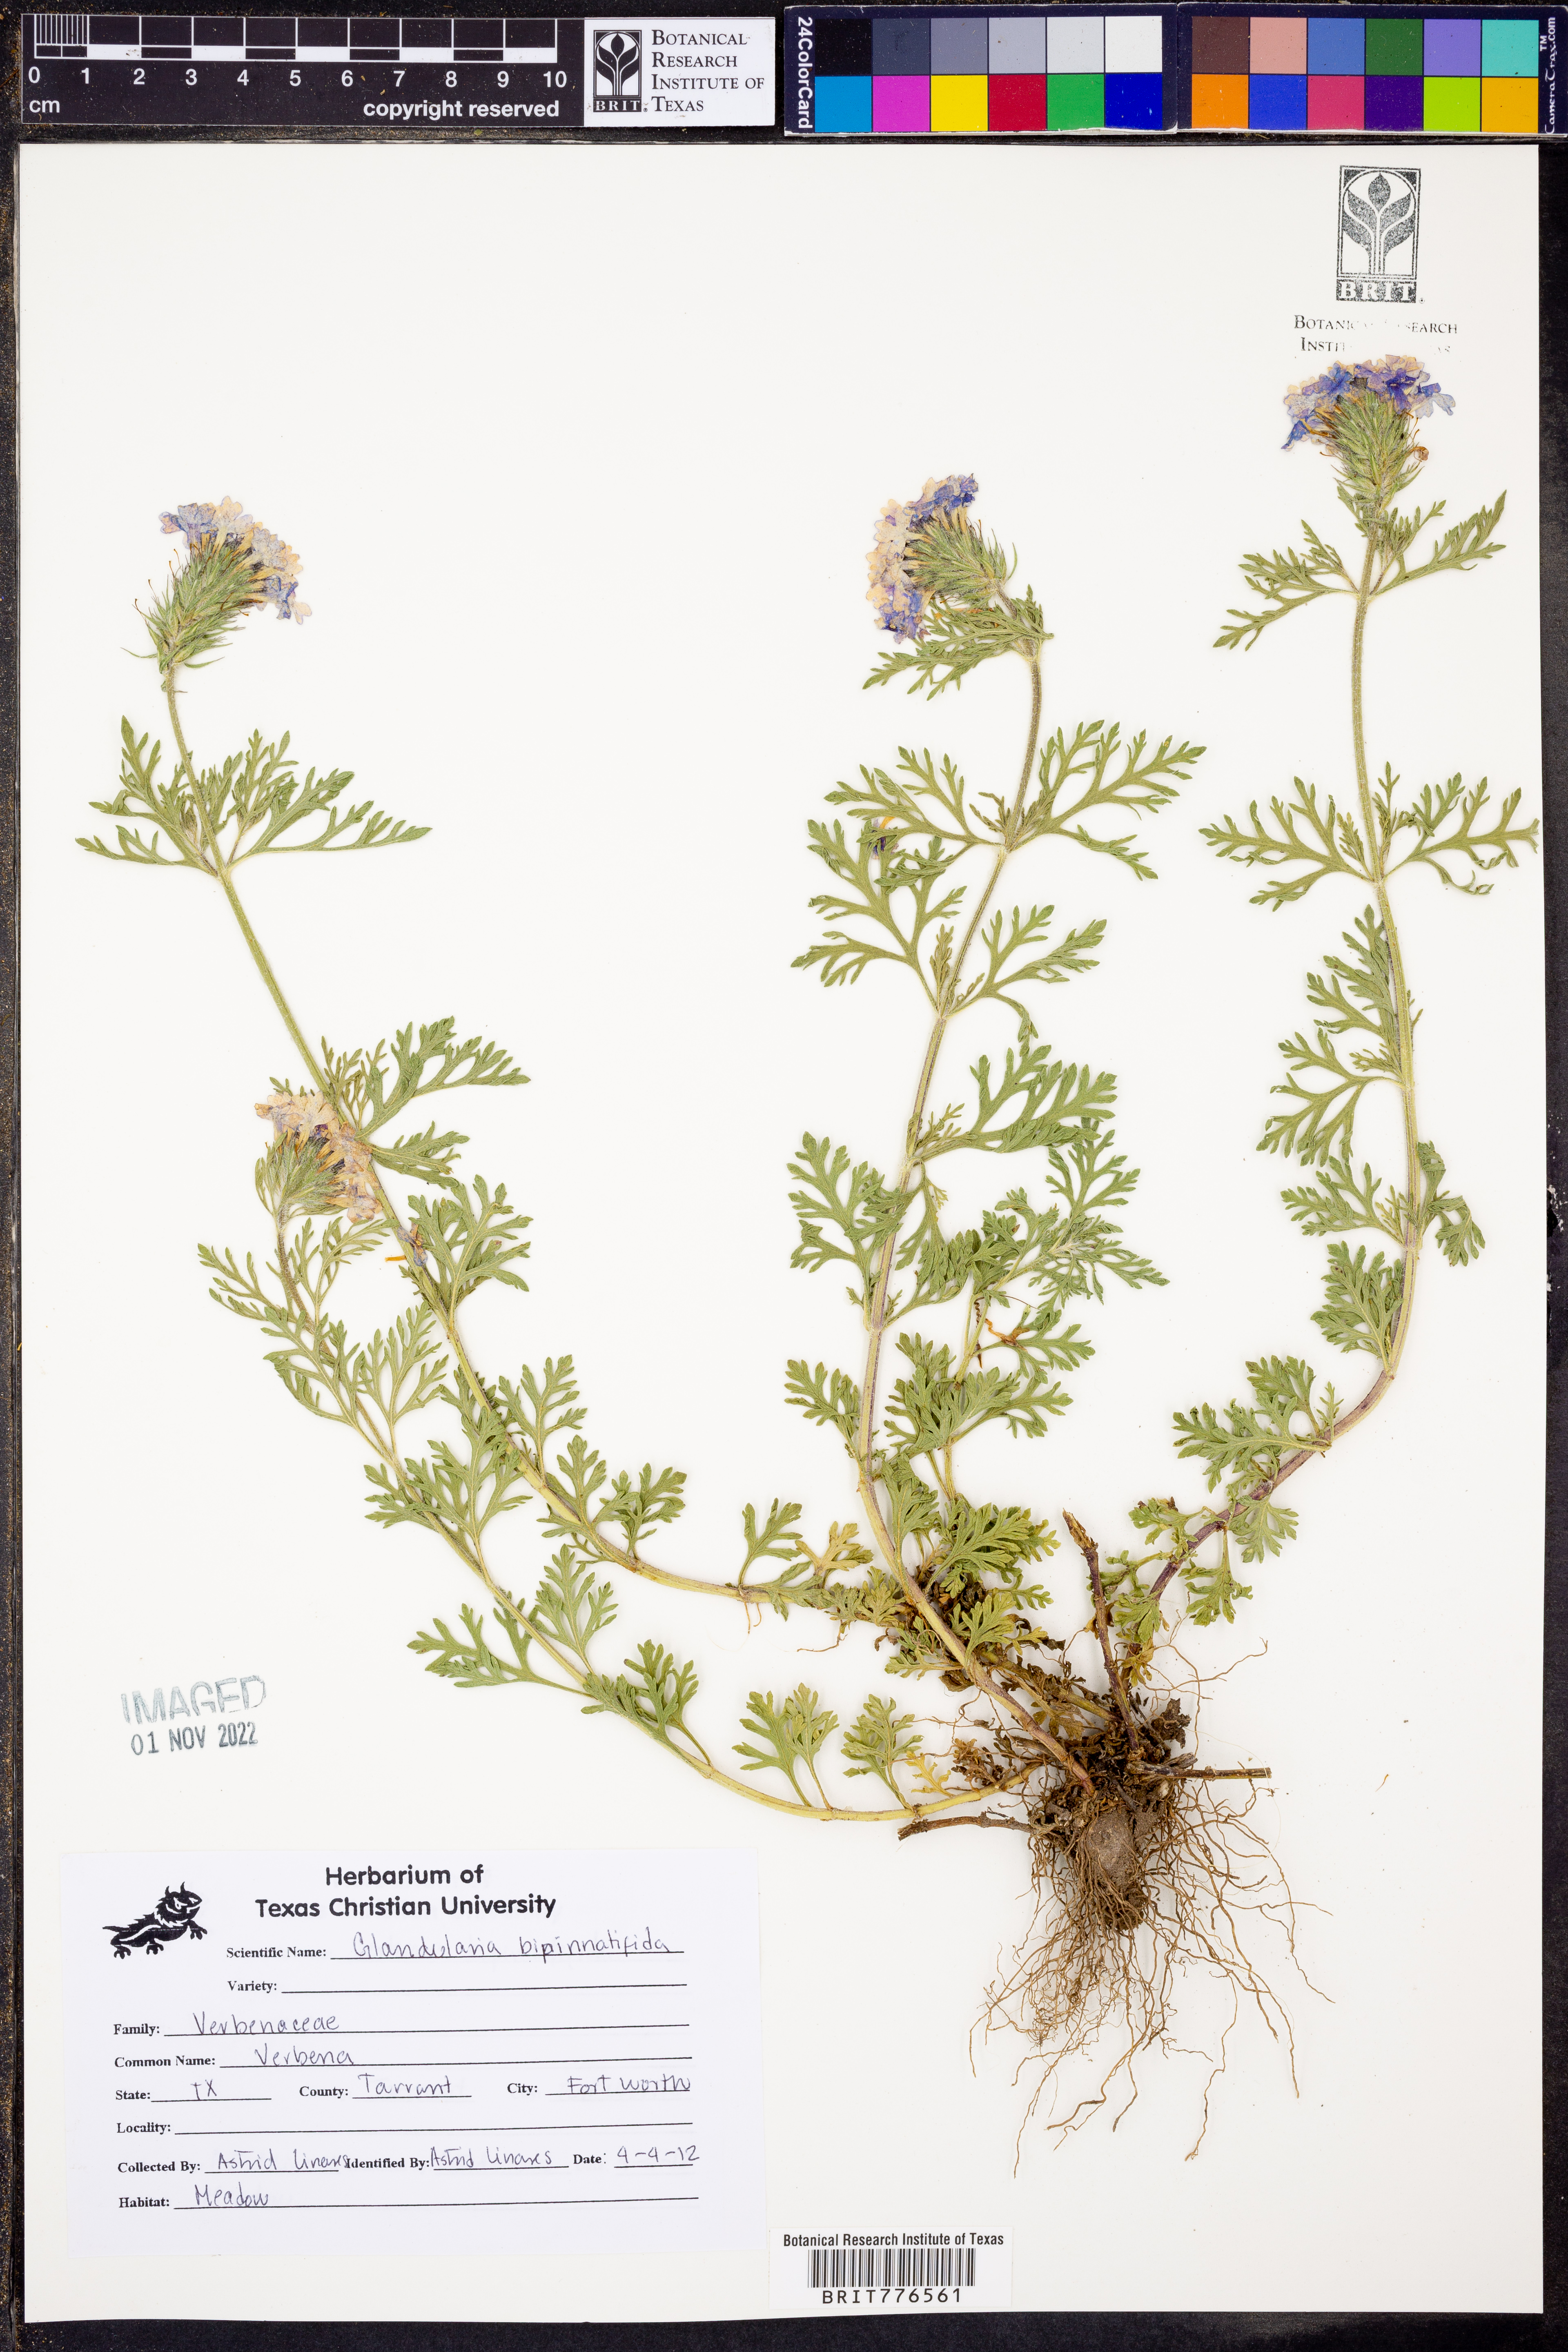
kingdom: Plantae
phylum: Tracheophyta
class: Magnoliopsida
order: Lamiales
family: Verbenaceae
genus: Verbena
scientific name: Verbena bipinnatifida
